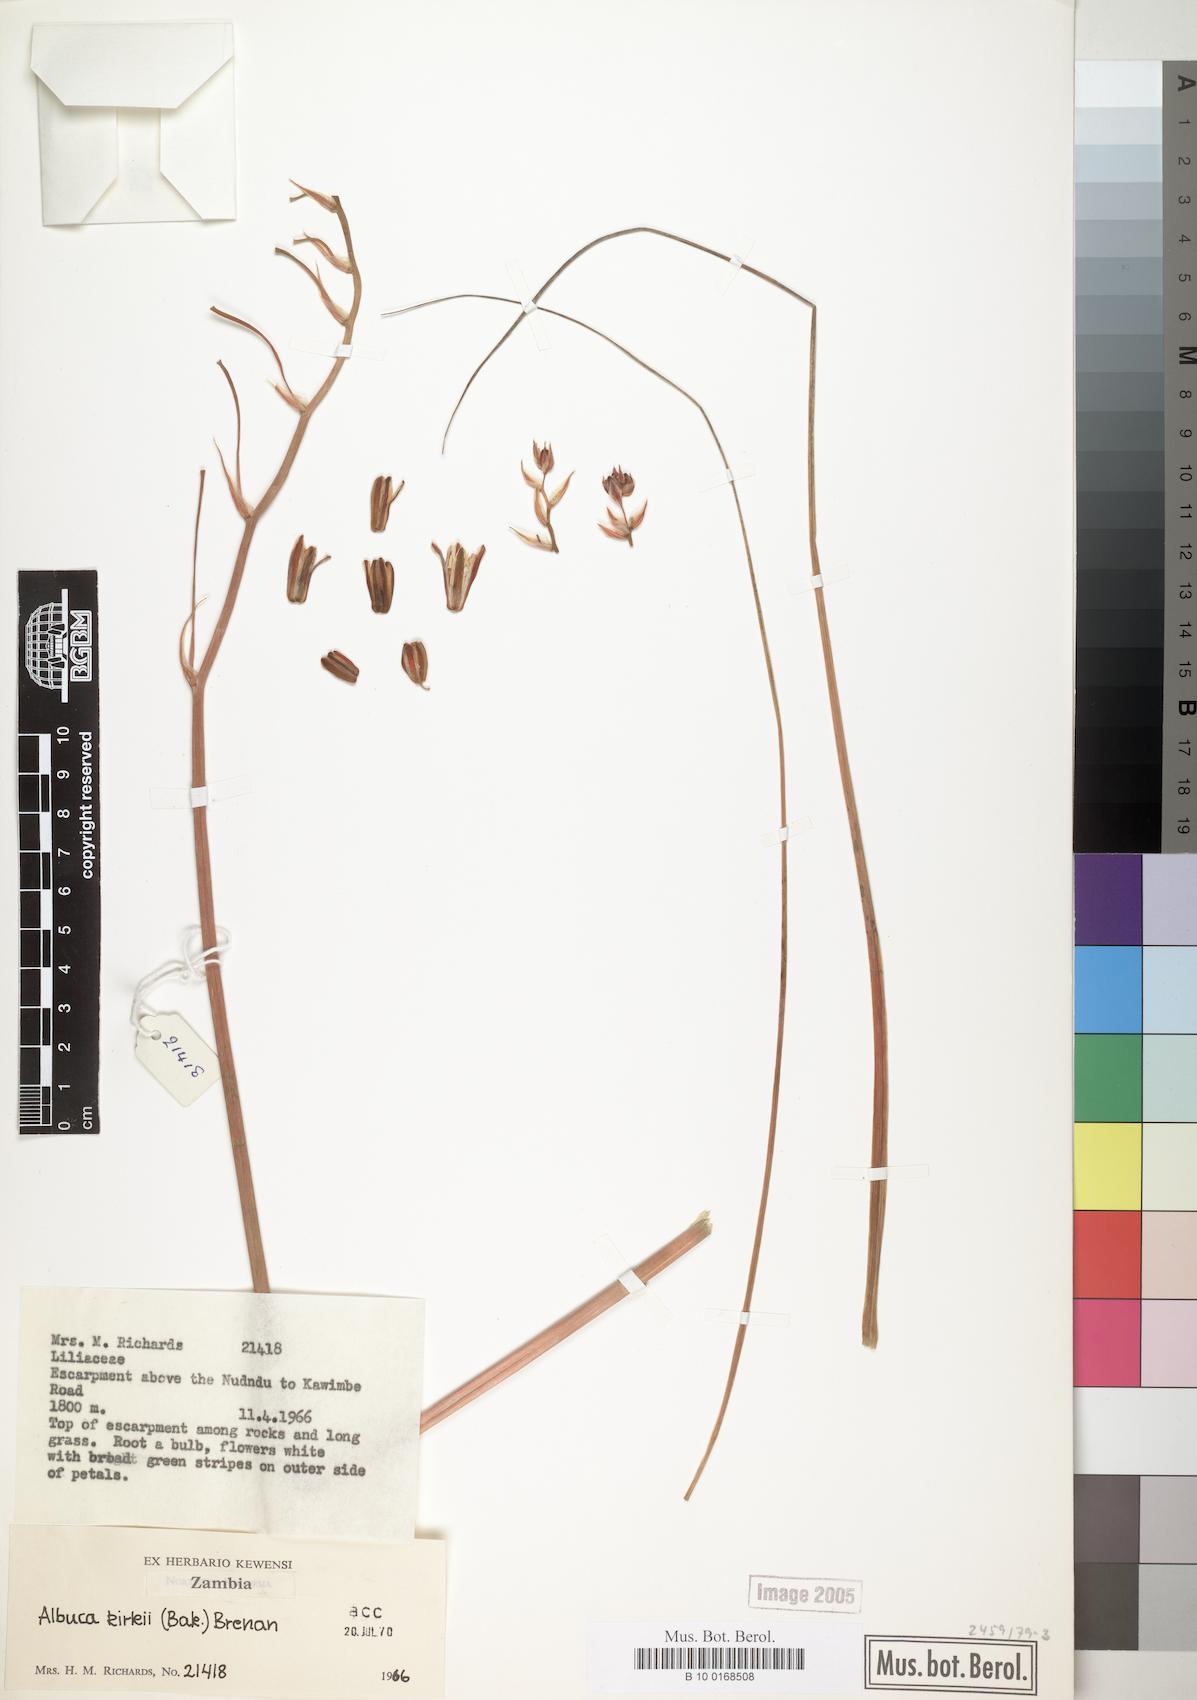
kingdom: Plantae
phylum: Tracheophyta
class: Liliopsida
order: Asparagales
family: Asparagaceae
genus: Albuca
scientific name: Albuca kirkii
